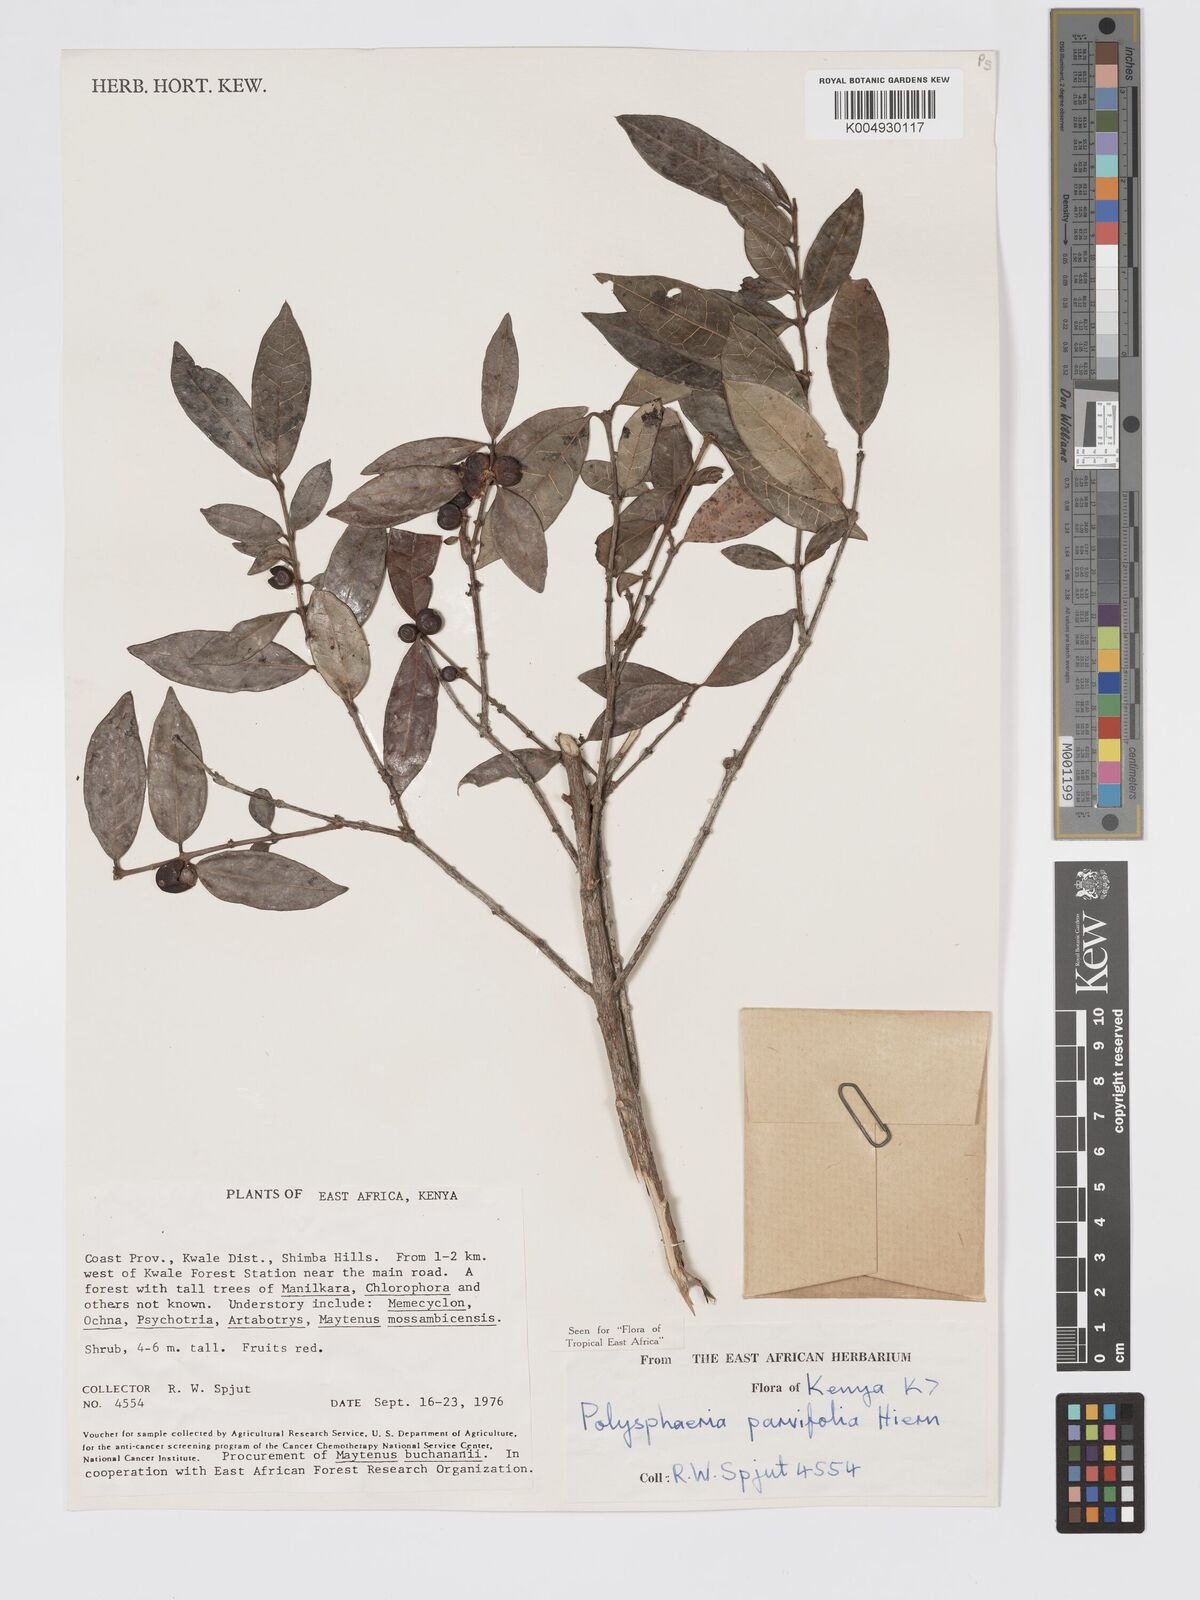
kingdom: Plantae
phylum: Tracheophyta
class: Magnoliopsida
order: Gentianales
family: Rubiaceae
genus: Polysphaeria
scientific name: Polysphaeria parvifolia
